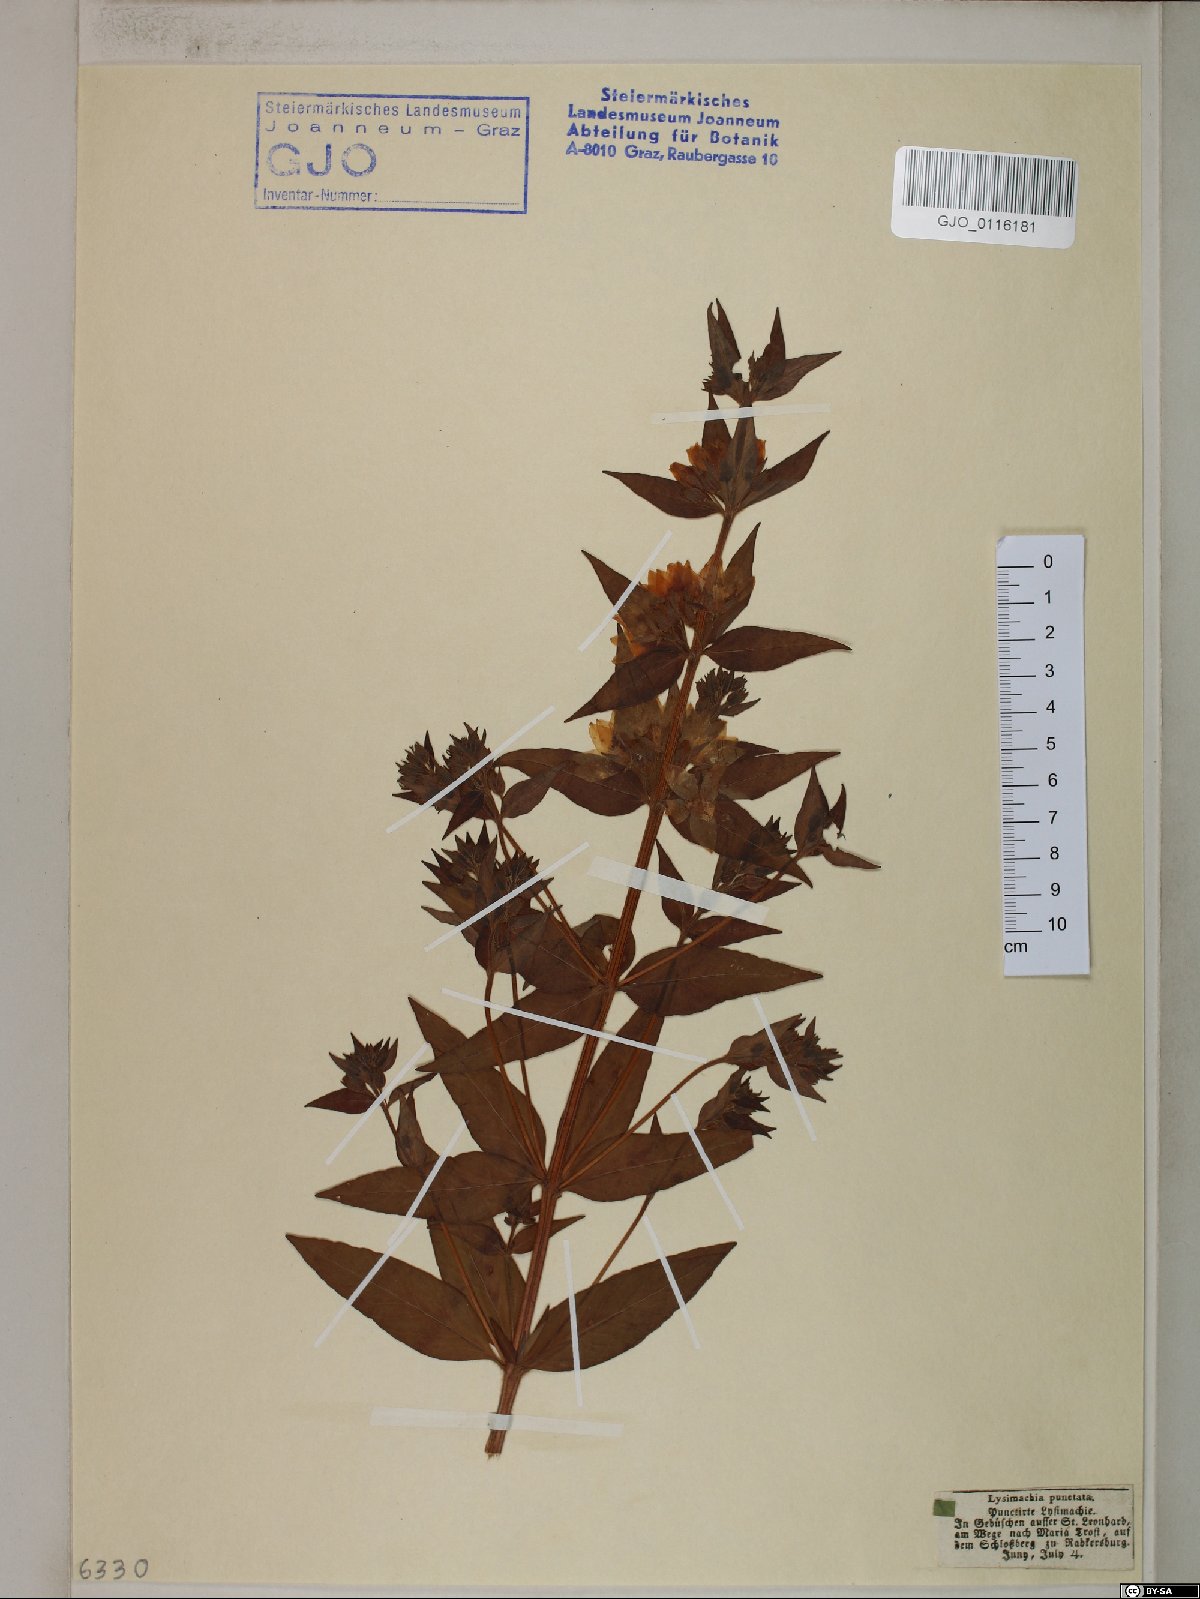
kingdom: Plantae
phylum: Tracheophyta
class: Magnoliopsida
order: Ericales
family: Primulaceae
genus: Lysimachia
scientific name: Lysimachia punctata
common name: Dotted loosestrife
